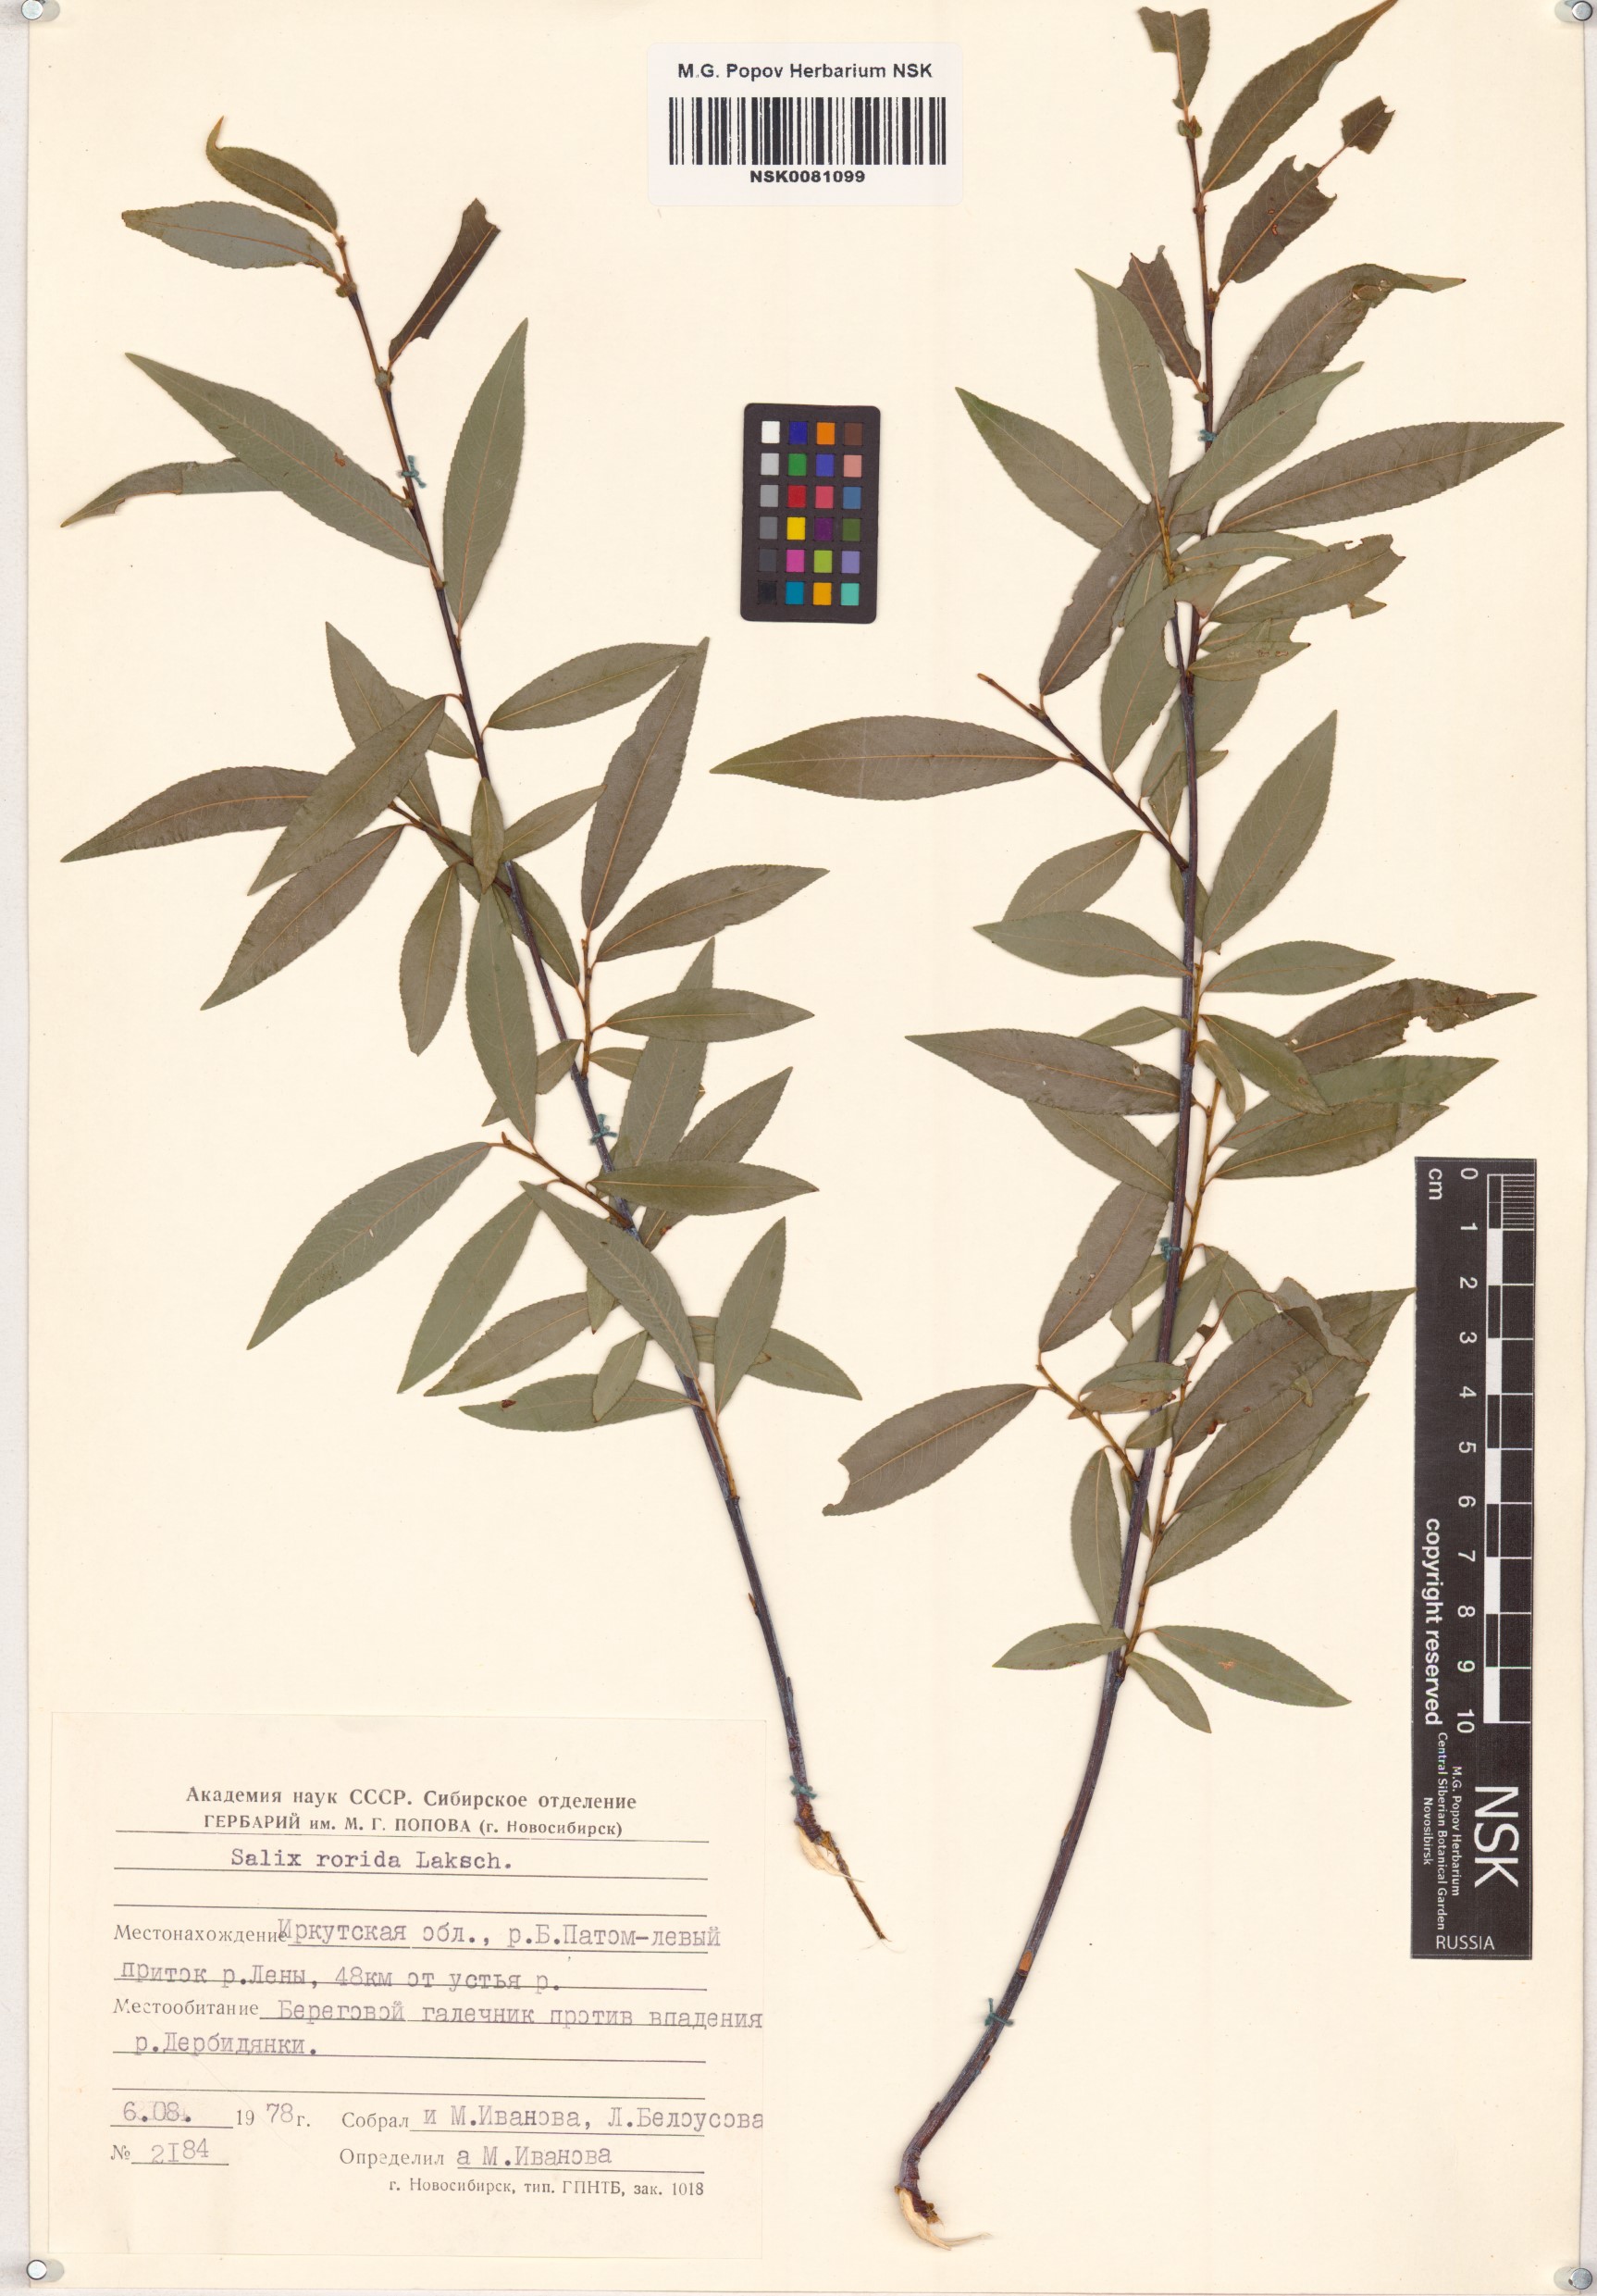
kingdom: Plantae
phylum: Tracheophyta
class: Magnoliopsida
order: Malpighiales
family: Salicaceae
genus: Salix
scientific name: Salix rorida
